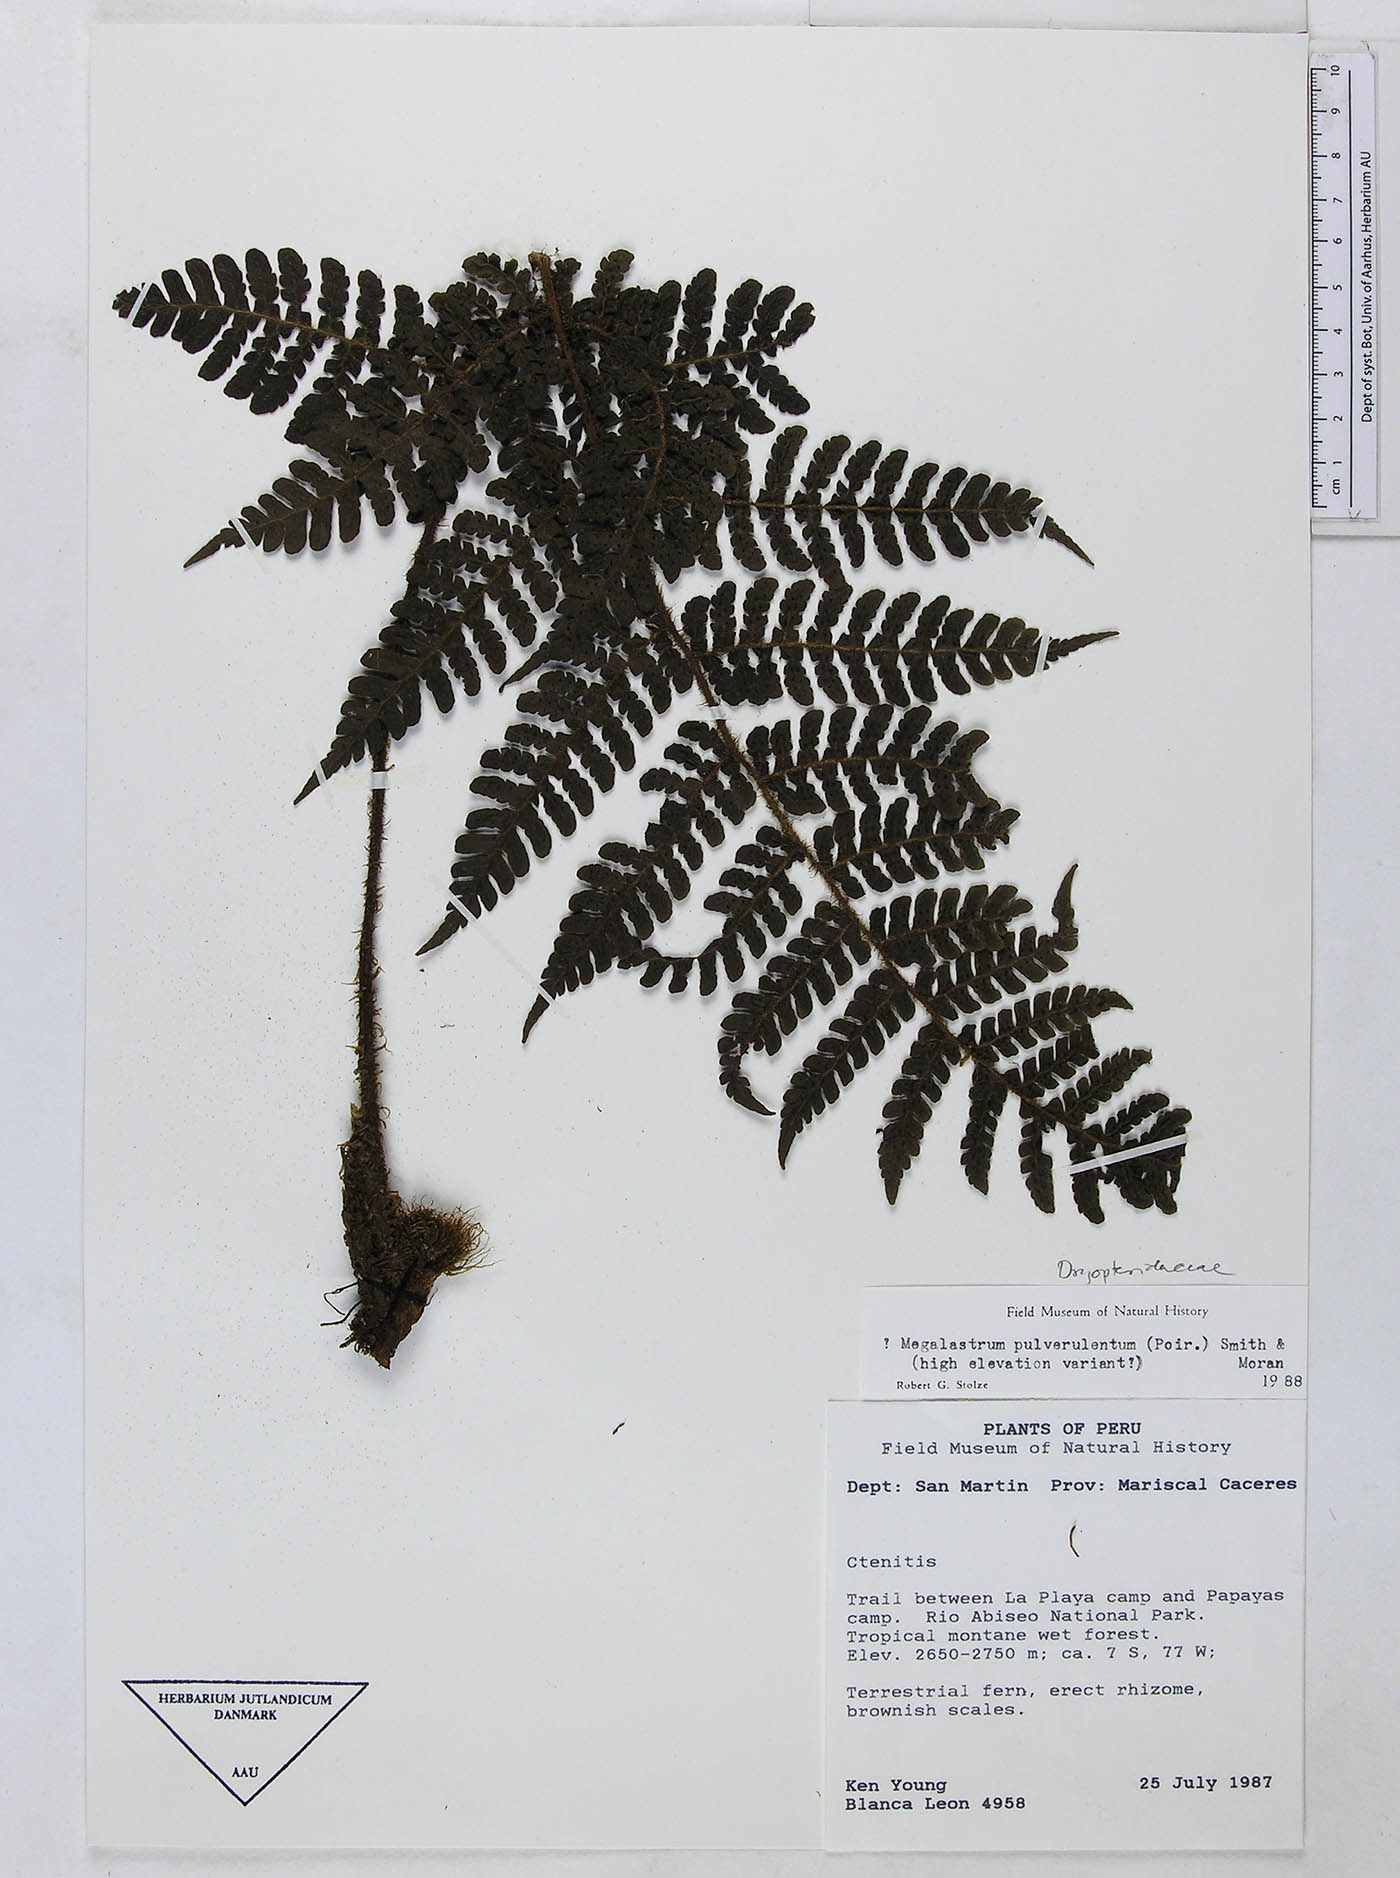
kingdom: Plantae
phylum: Tracheophyta
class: Polypodiopsida
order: Polypodiales
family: Dryopteridaceae
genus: Megalastrum
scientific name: Megalastrum fimbriatum
